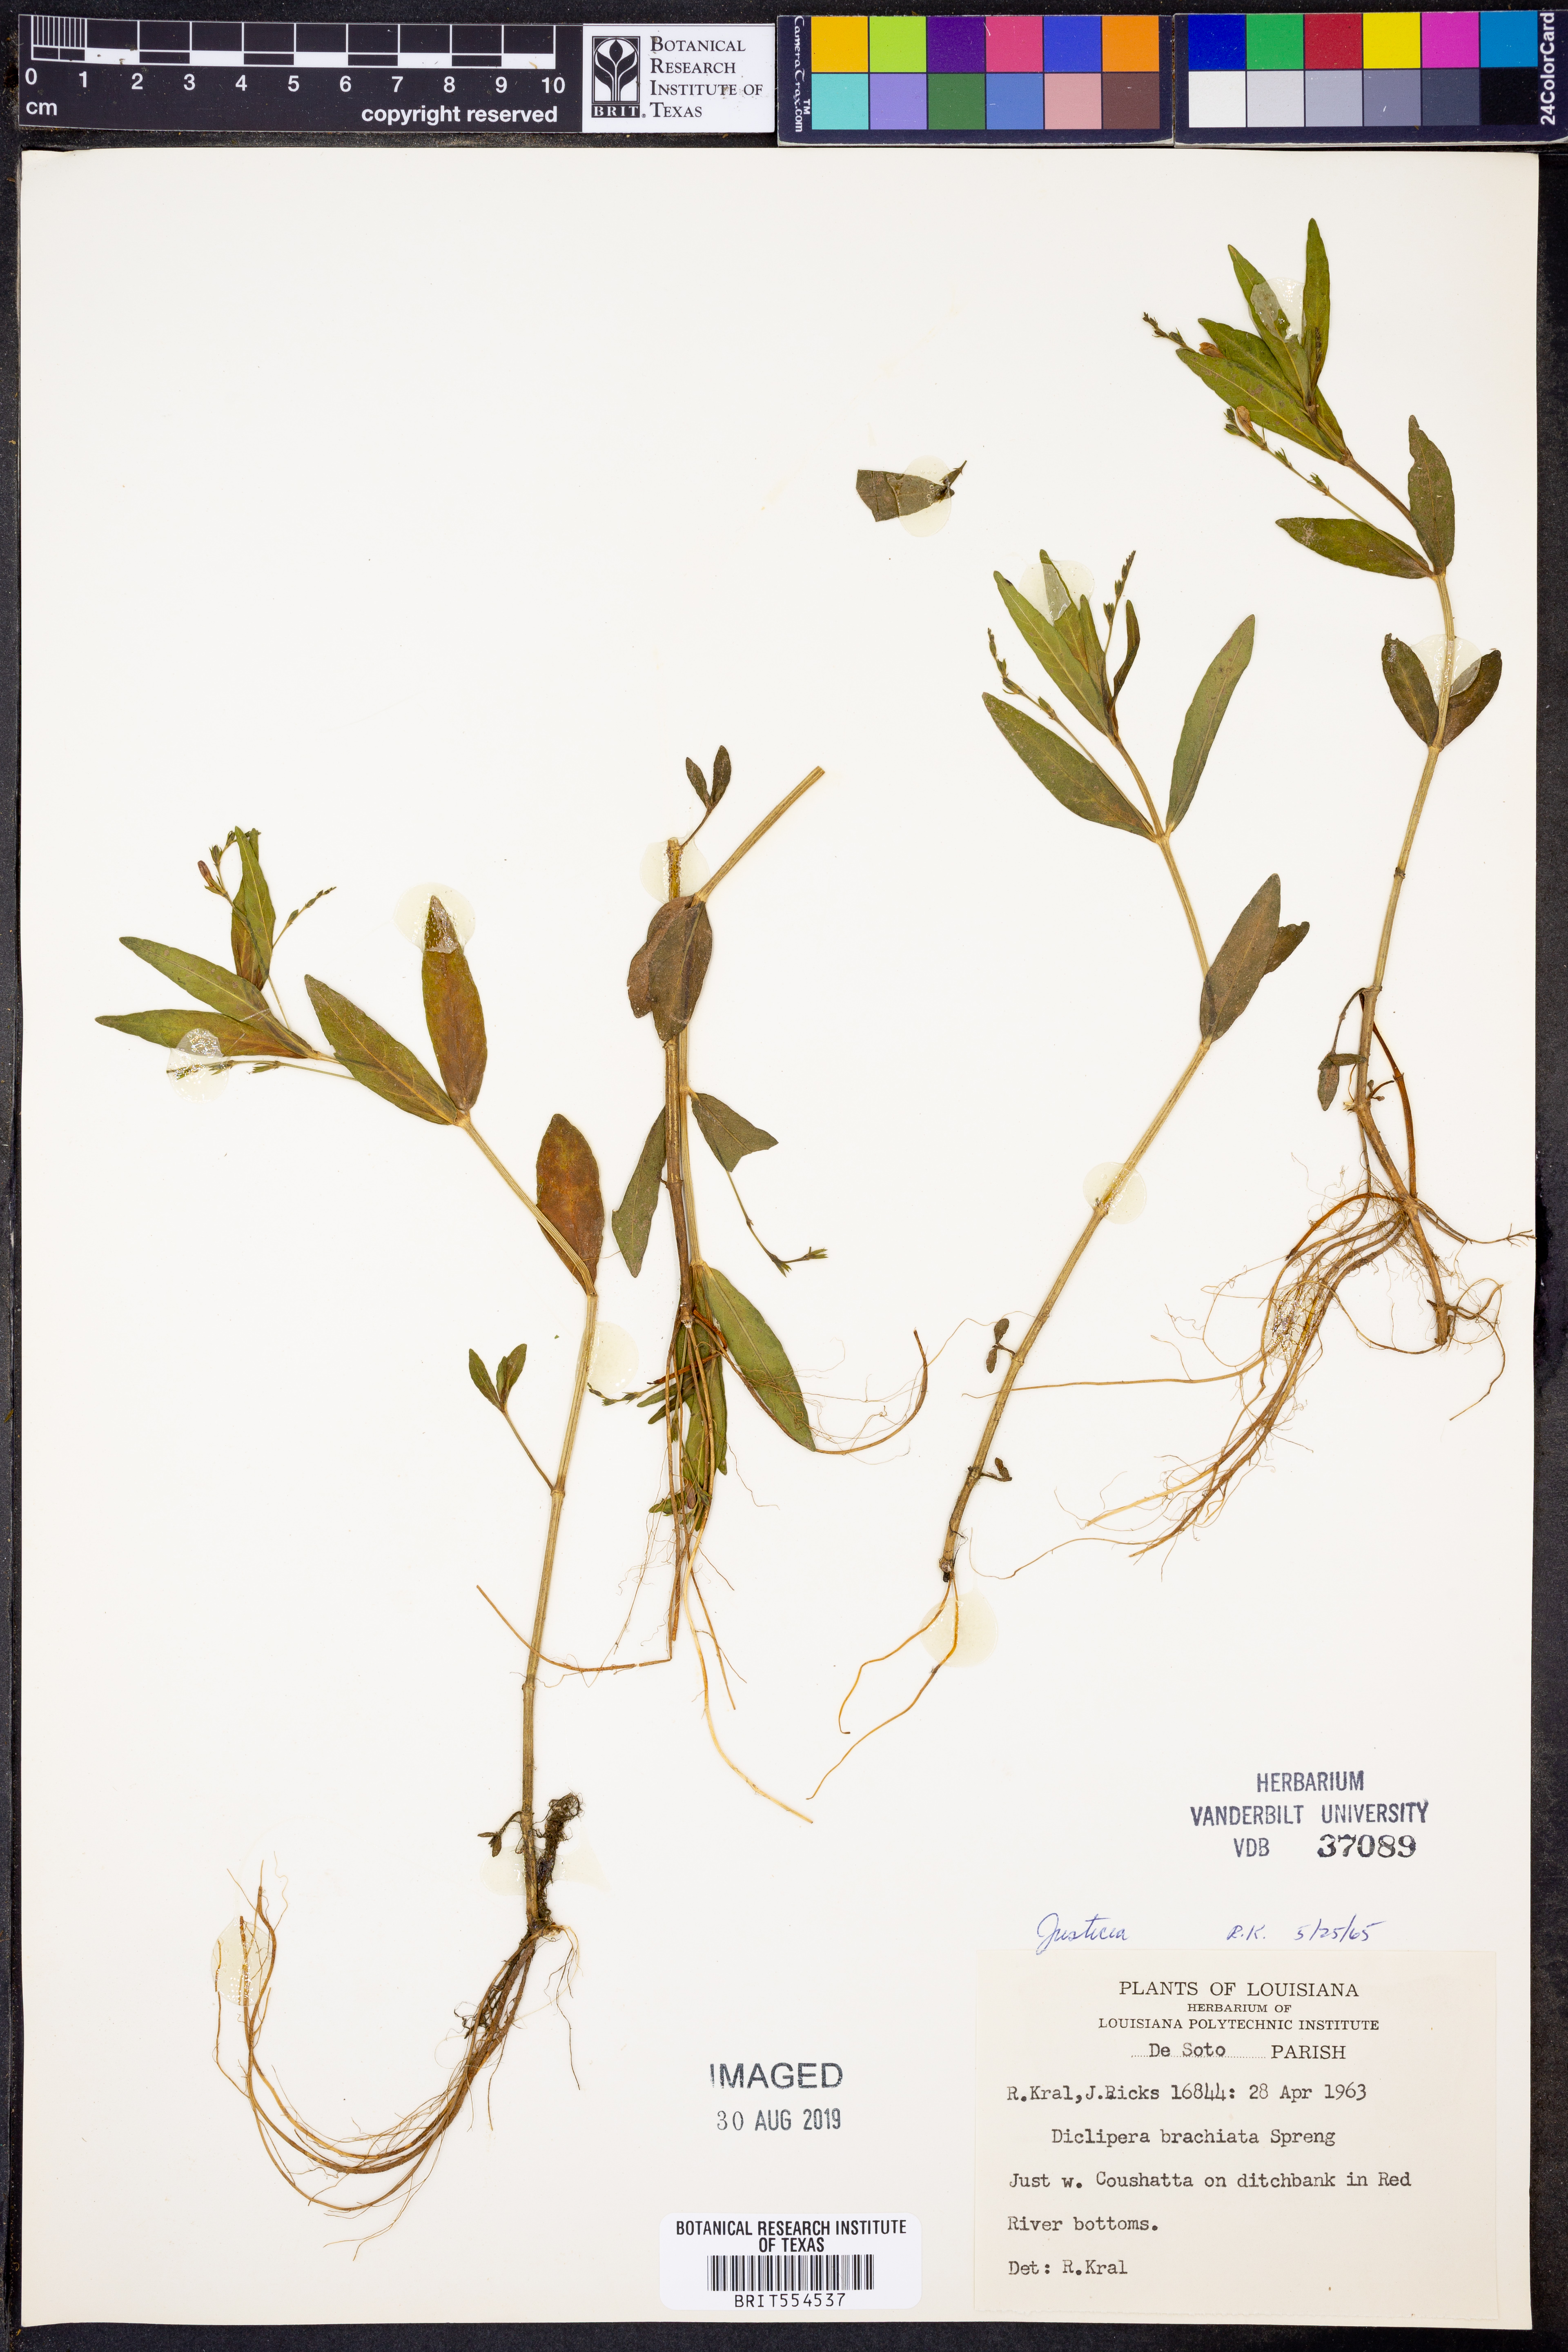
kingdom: Plantae
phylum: Tracheophyta
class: Magnoliopsida
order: Lamiales
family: Acanthaceae
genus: Justicia
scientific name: Justicia
